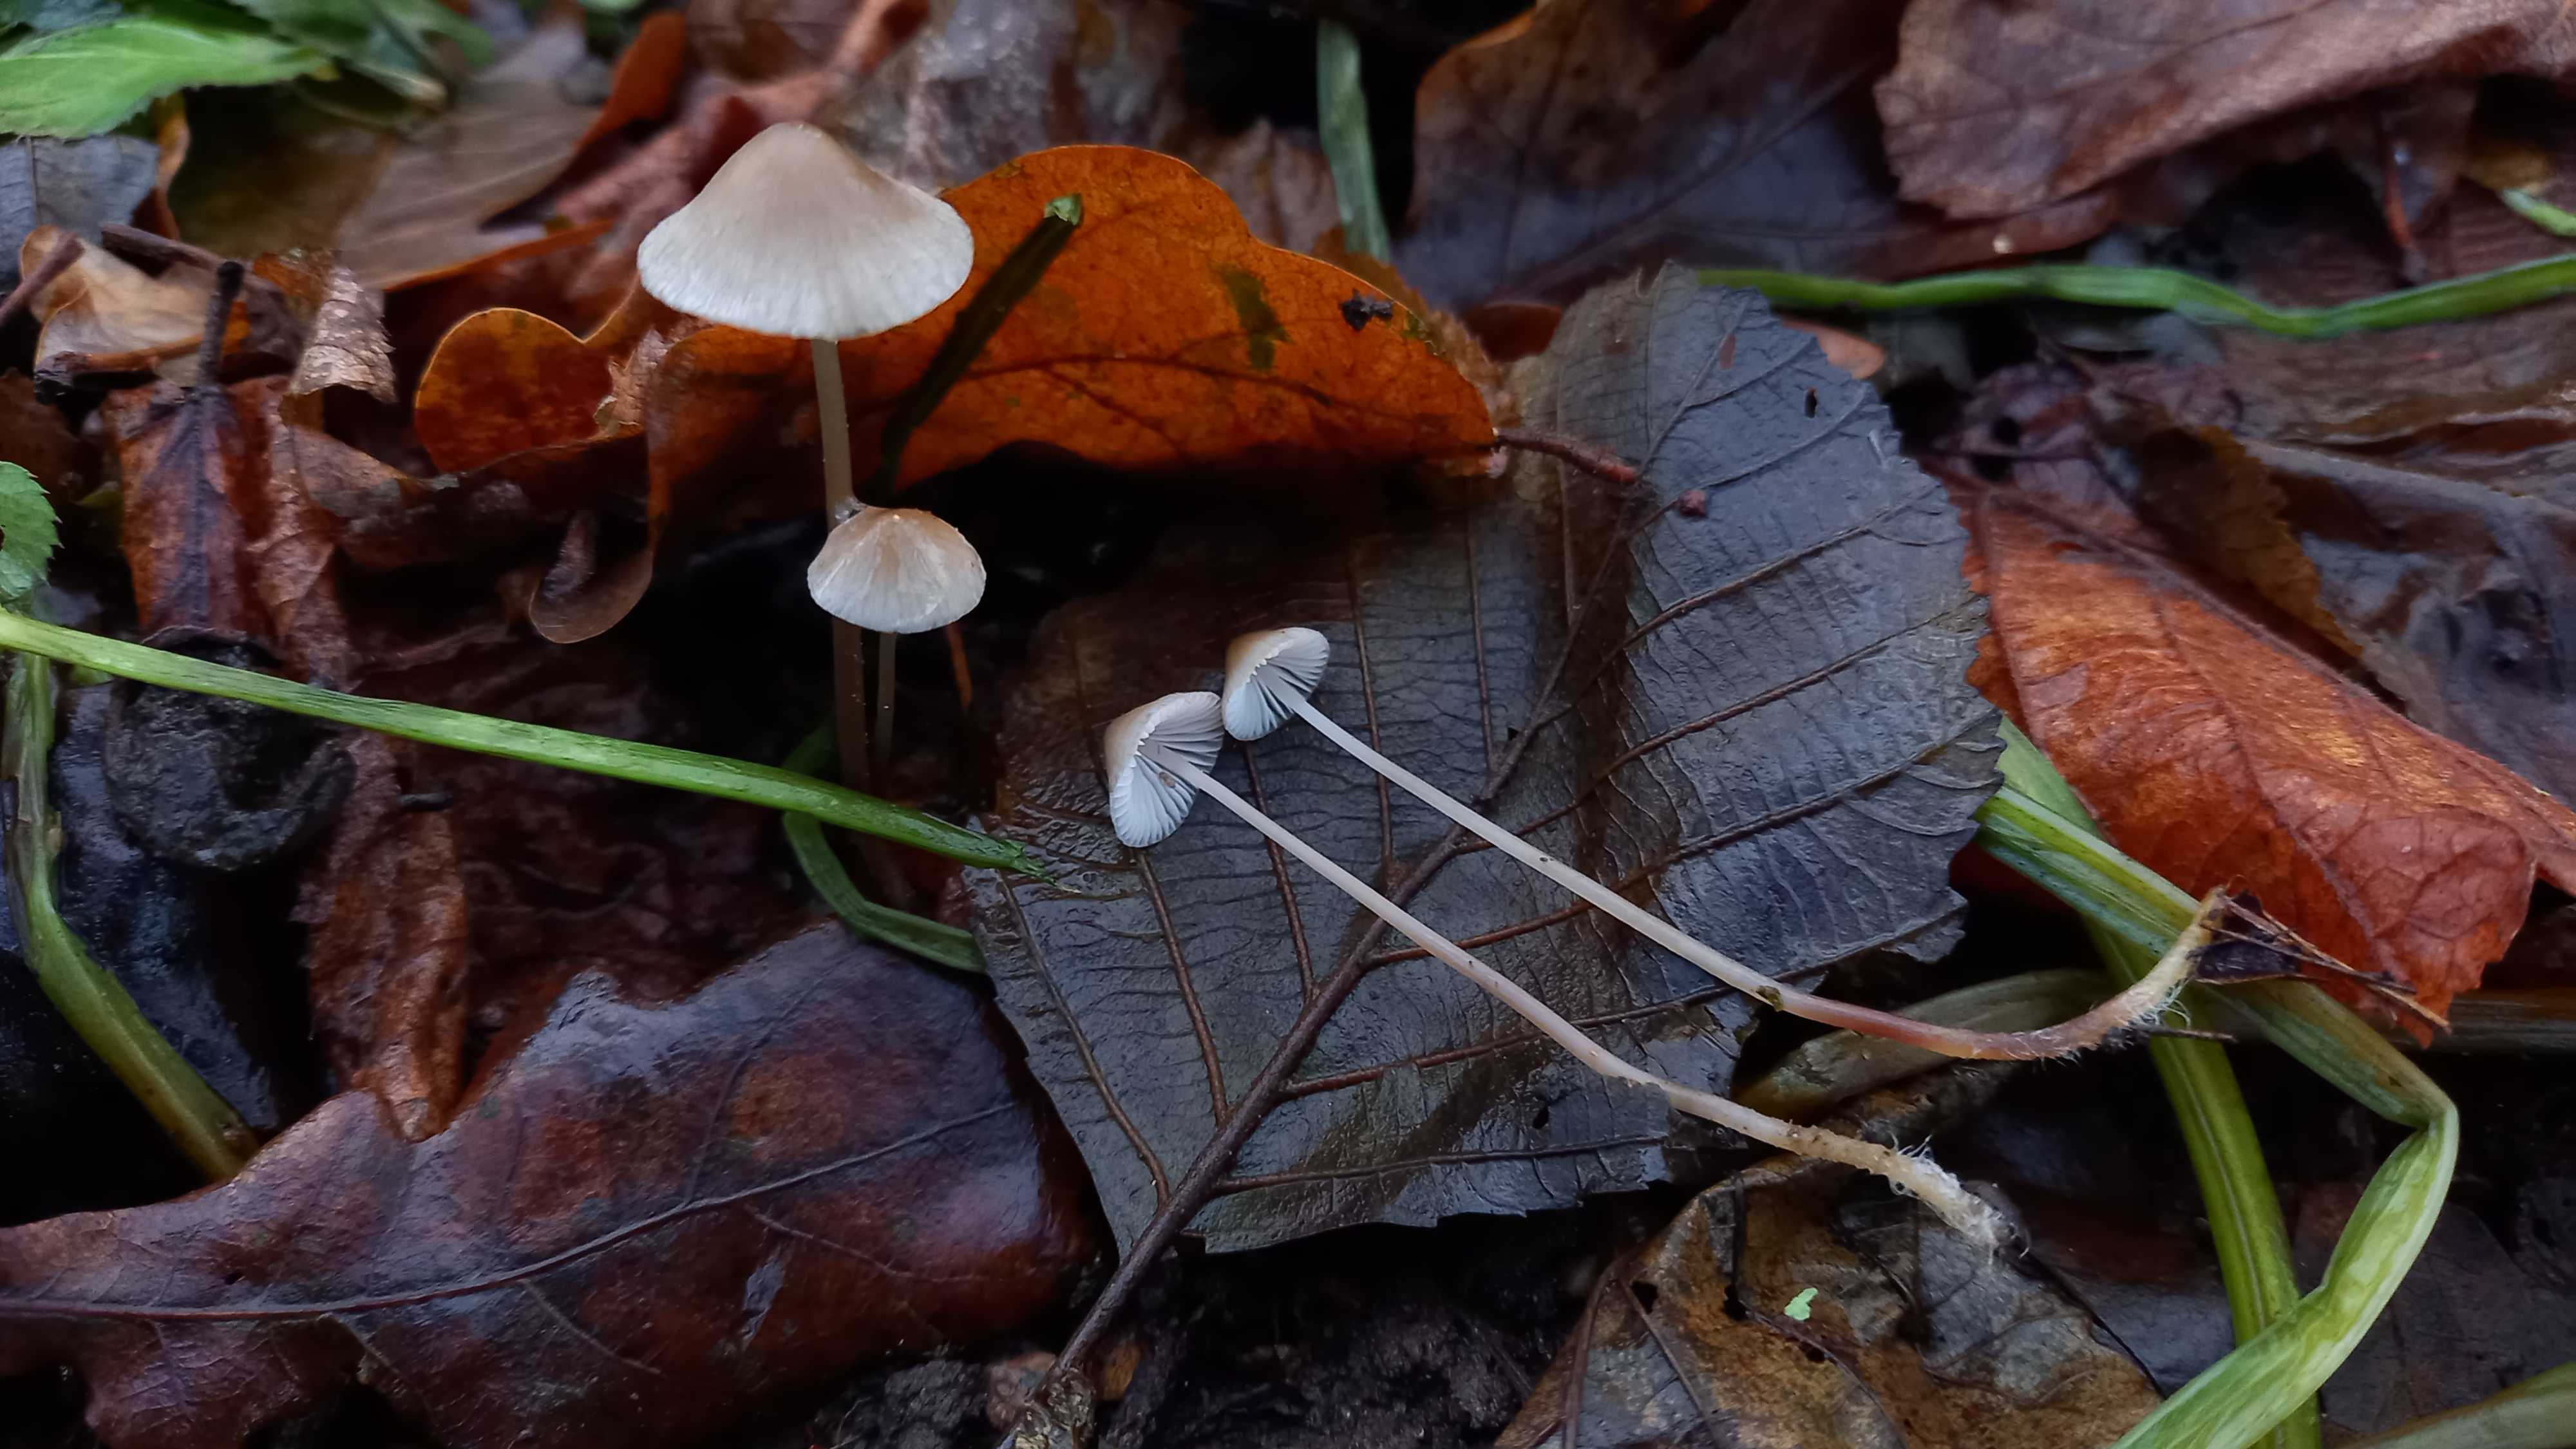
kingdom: Fungi
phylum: Basidiomycota
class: Agaricomycetes
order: Agaricales
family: Mycenaceae
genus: Mycena
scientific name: Mycena vitilis
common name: blankstokket huesvamp
